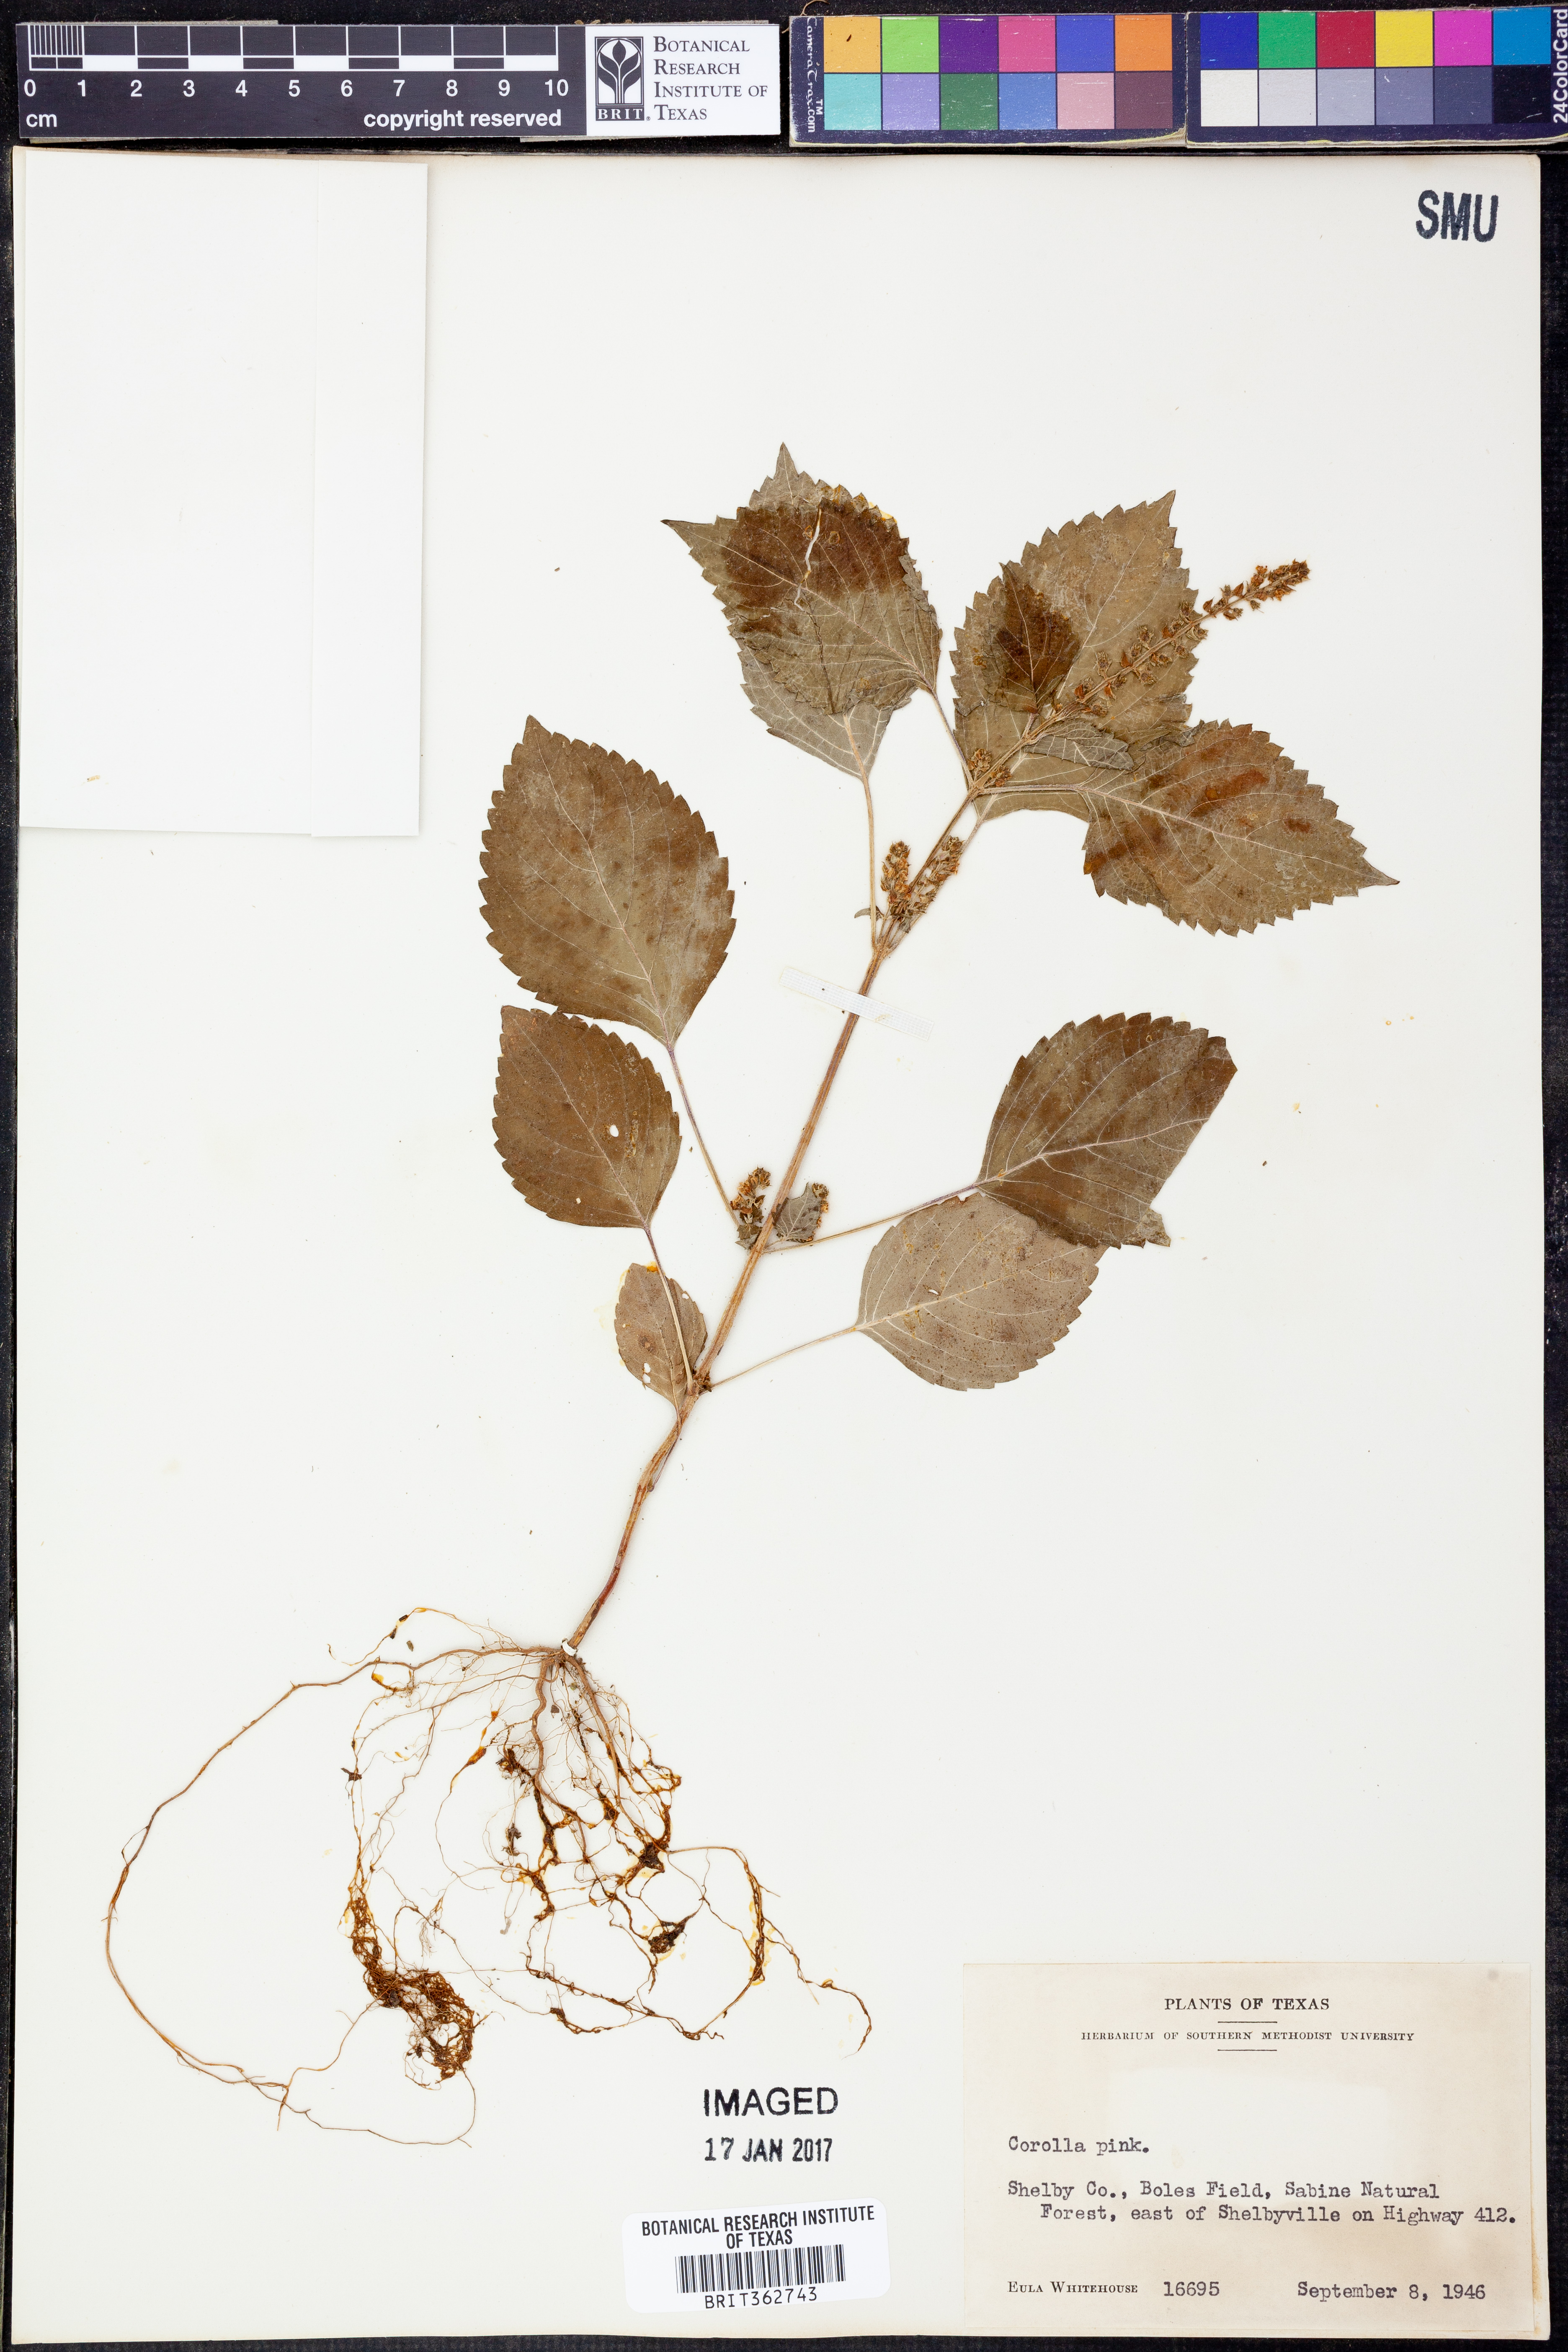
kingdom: Plantae
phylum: Tracheophyta
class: Magnoliopsida
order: Lamiales
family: Lamiaceae
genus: Perilla
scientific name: Perilla
